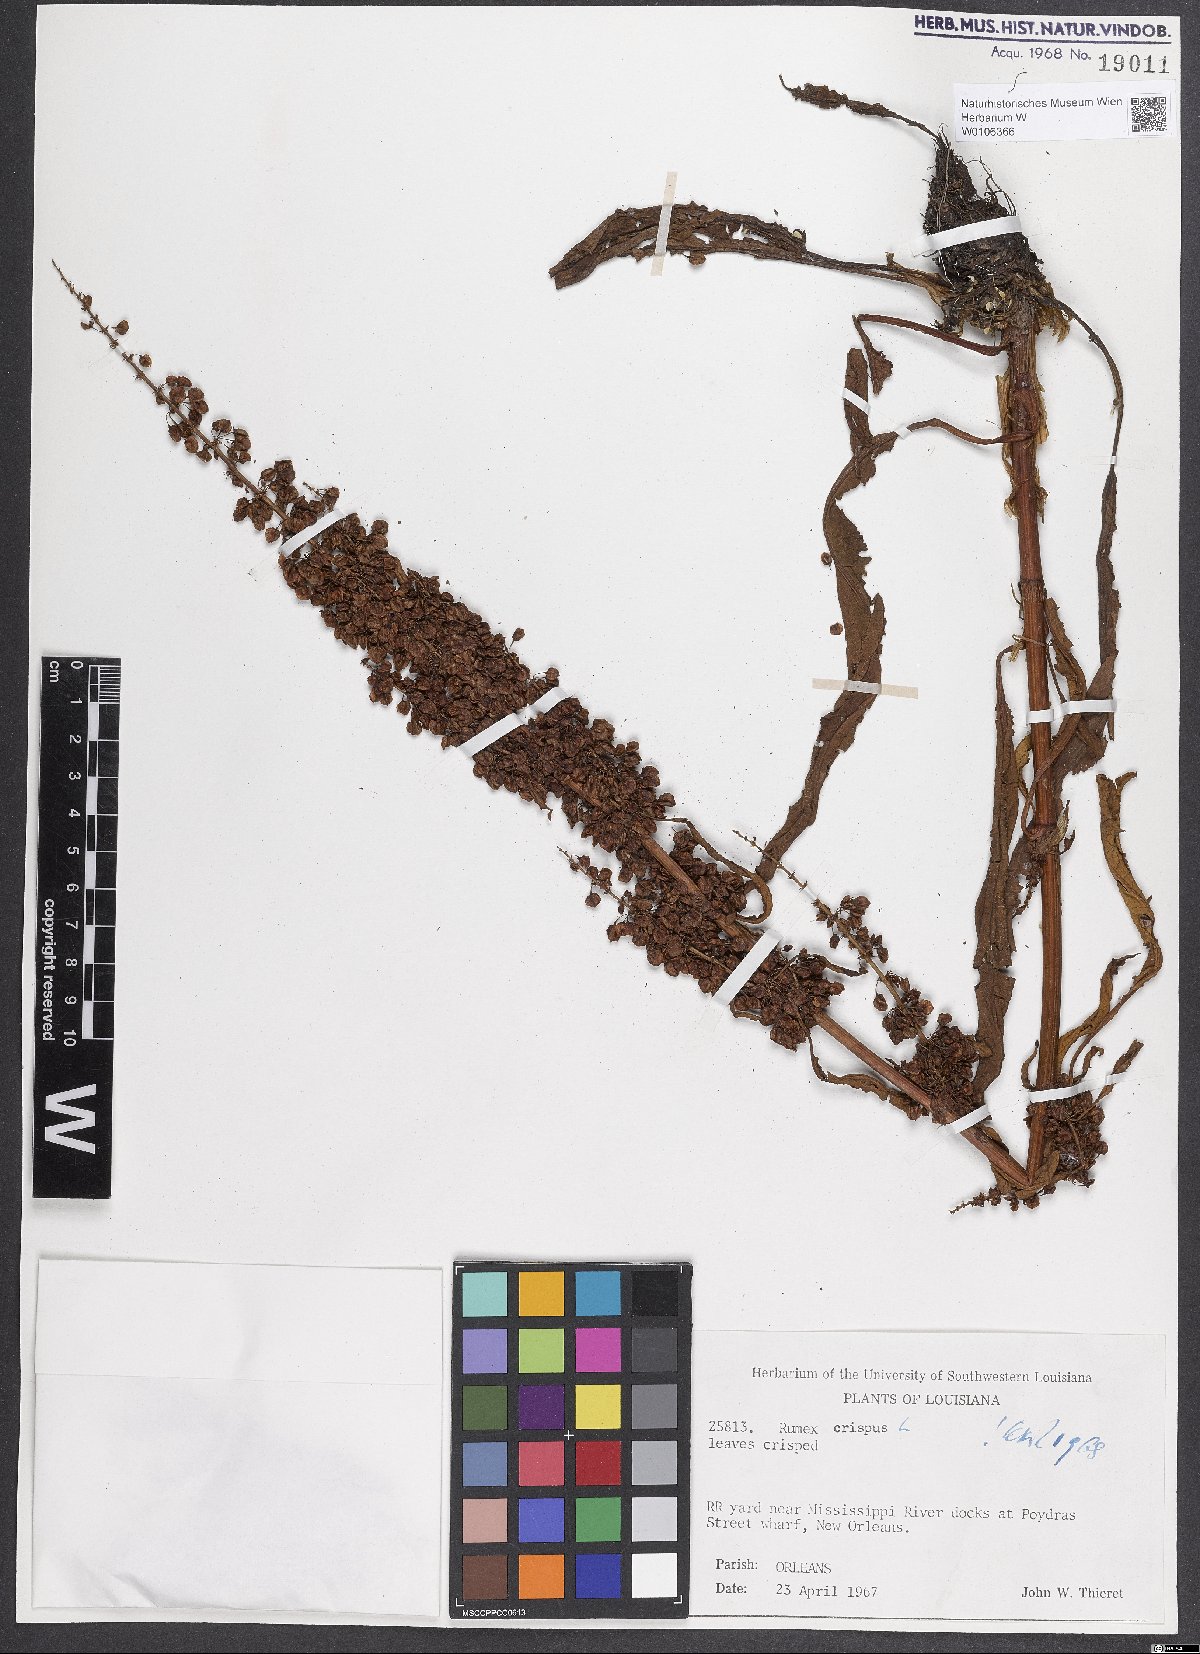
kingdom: Plantae
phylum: Tracheophyta
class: Magnoliopsida
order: Caryophyllales
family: Polygonaceae
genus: Rumex
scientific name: Rumex crispus
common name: Curled dock
